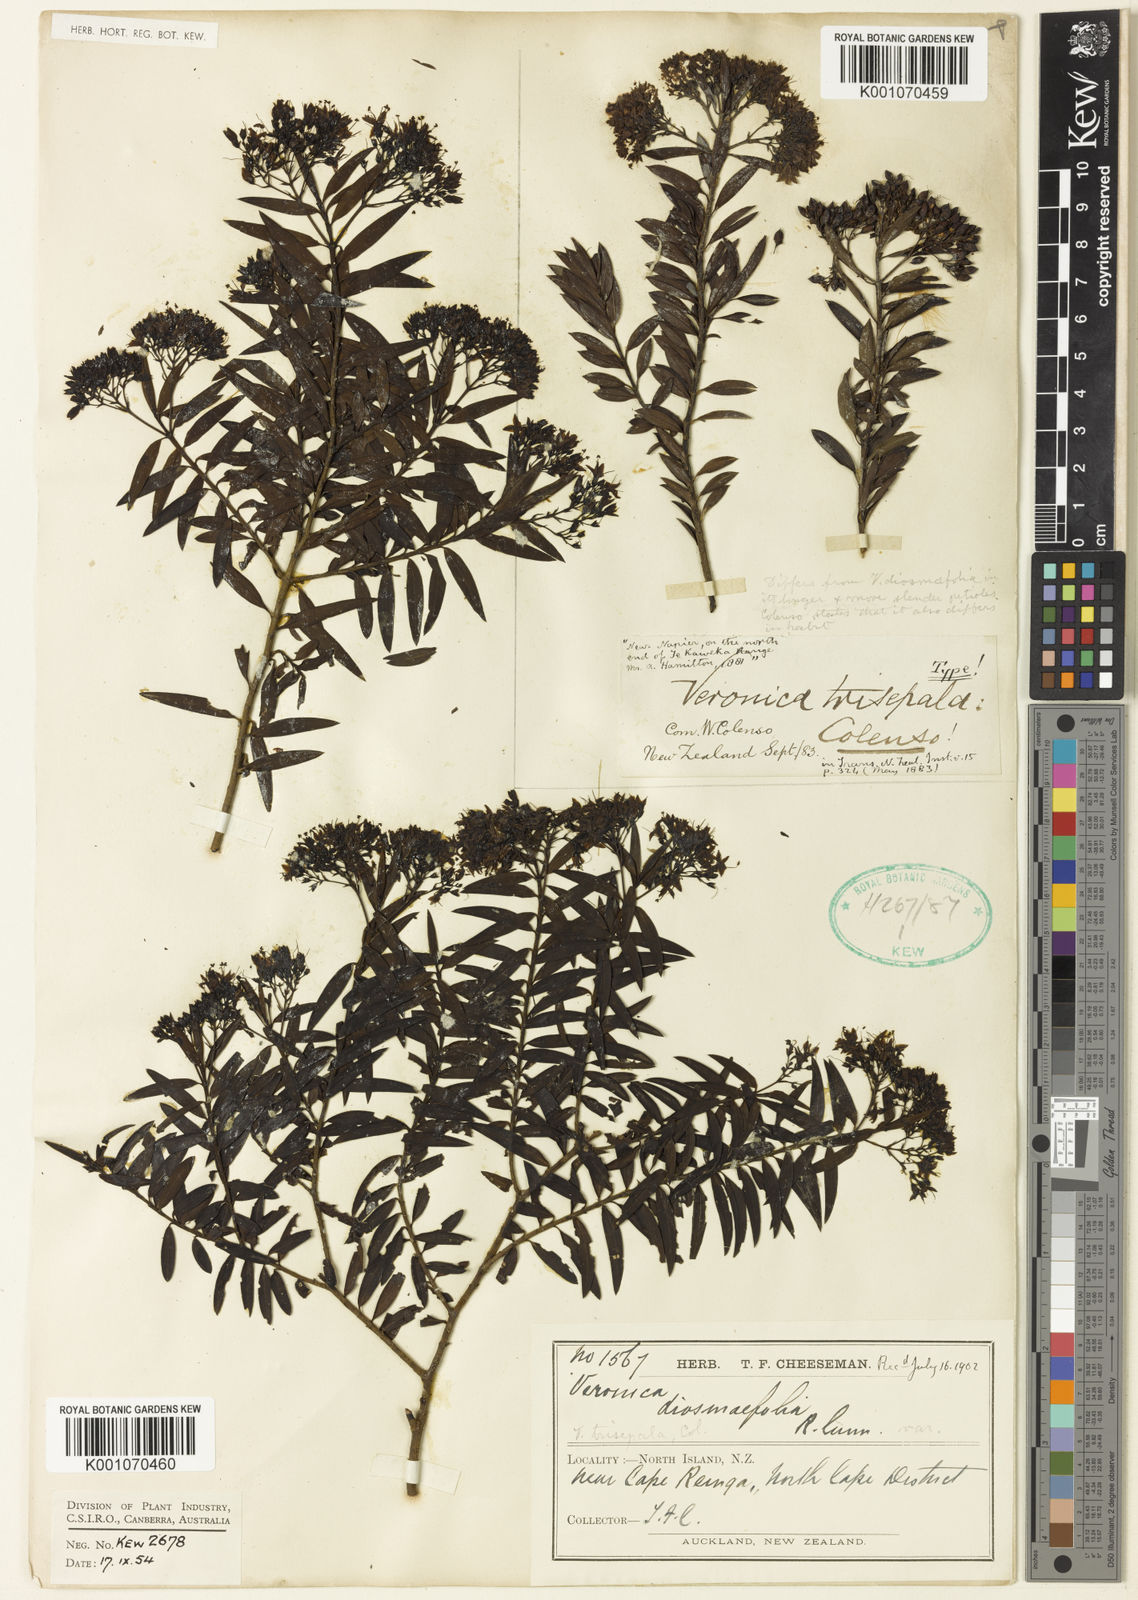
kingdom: Plantae
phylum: Tracheophyta
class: Magnoliopsida
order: Lamiales
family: Plantaginaceae
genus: Veronica
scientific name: Veronica
